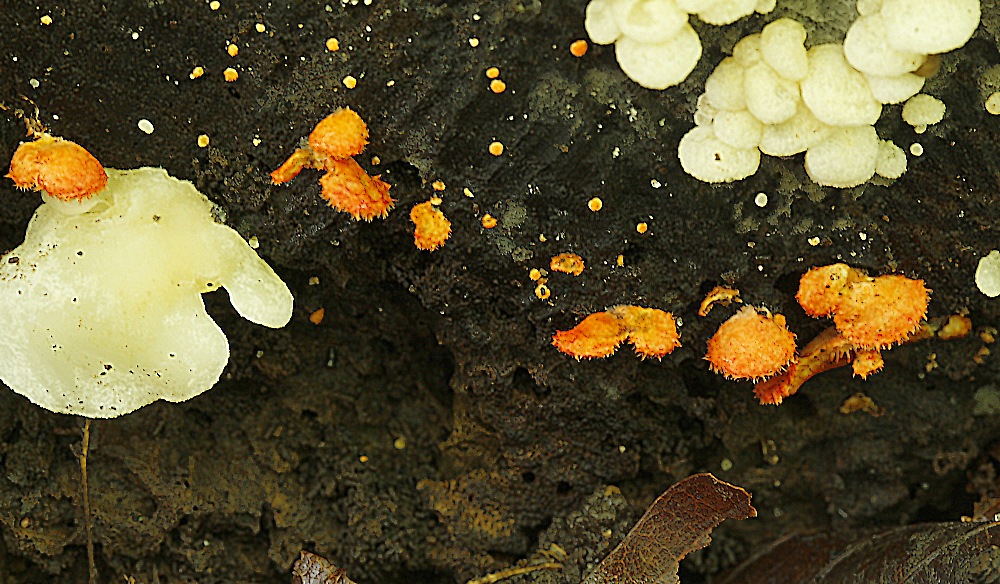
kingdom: Fungi
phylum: Basidiomycota
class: Agaricomycetes
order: Agaricales
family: Crepidotaceae
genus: Crepidotus
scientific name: Crepidotus cinnabarinus
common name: cinnober-muslingesvamp
